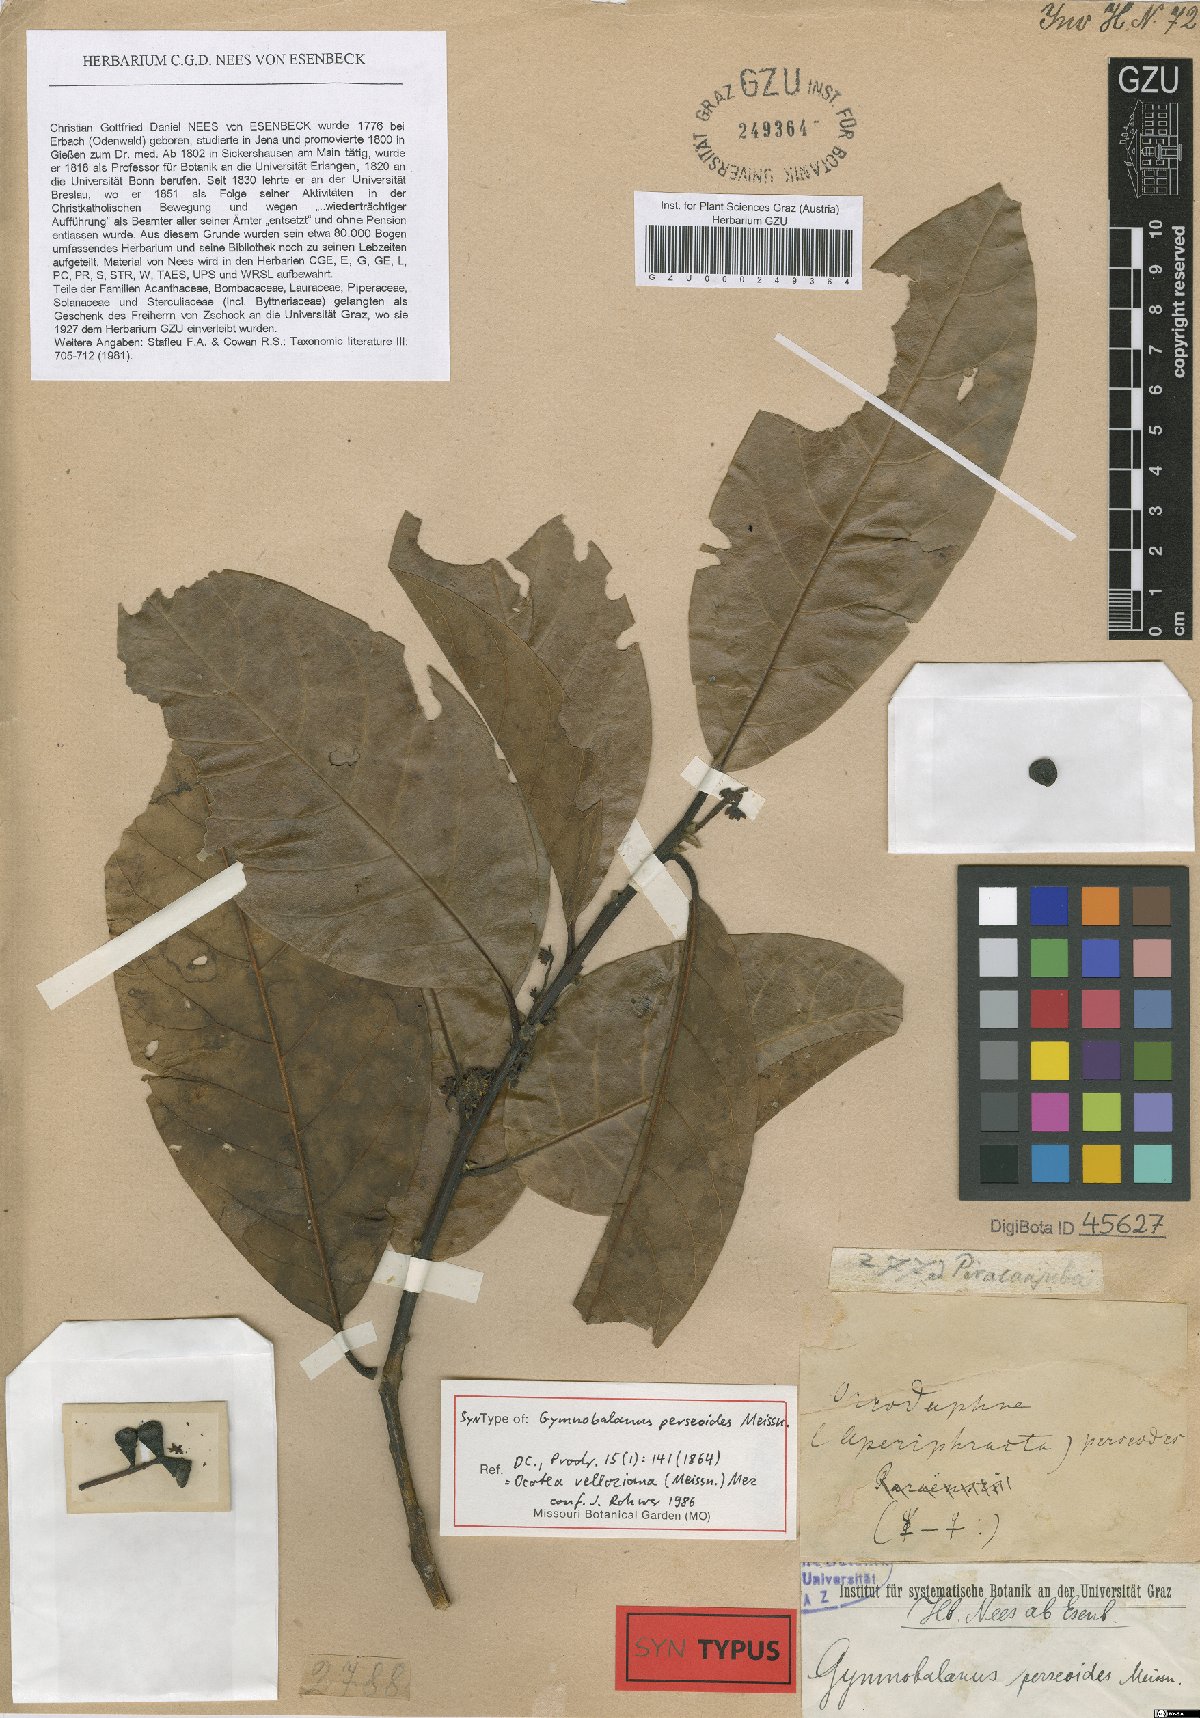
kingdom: Plantae
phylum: Tracheophyta
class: Magnoliopsida
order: Laurales
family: Lauraceae
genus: Ocotea
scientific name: Ocotea puberula
